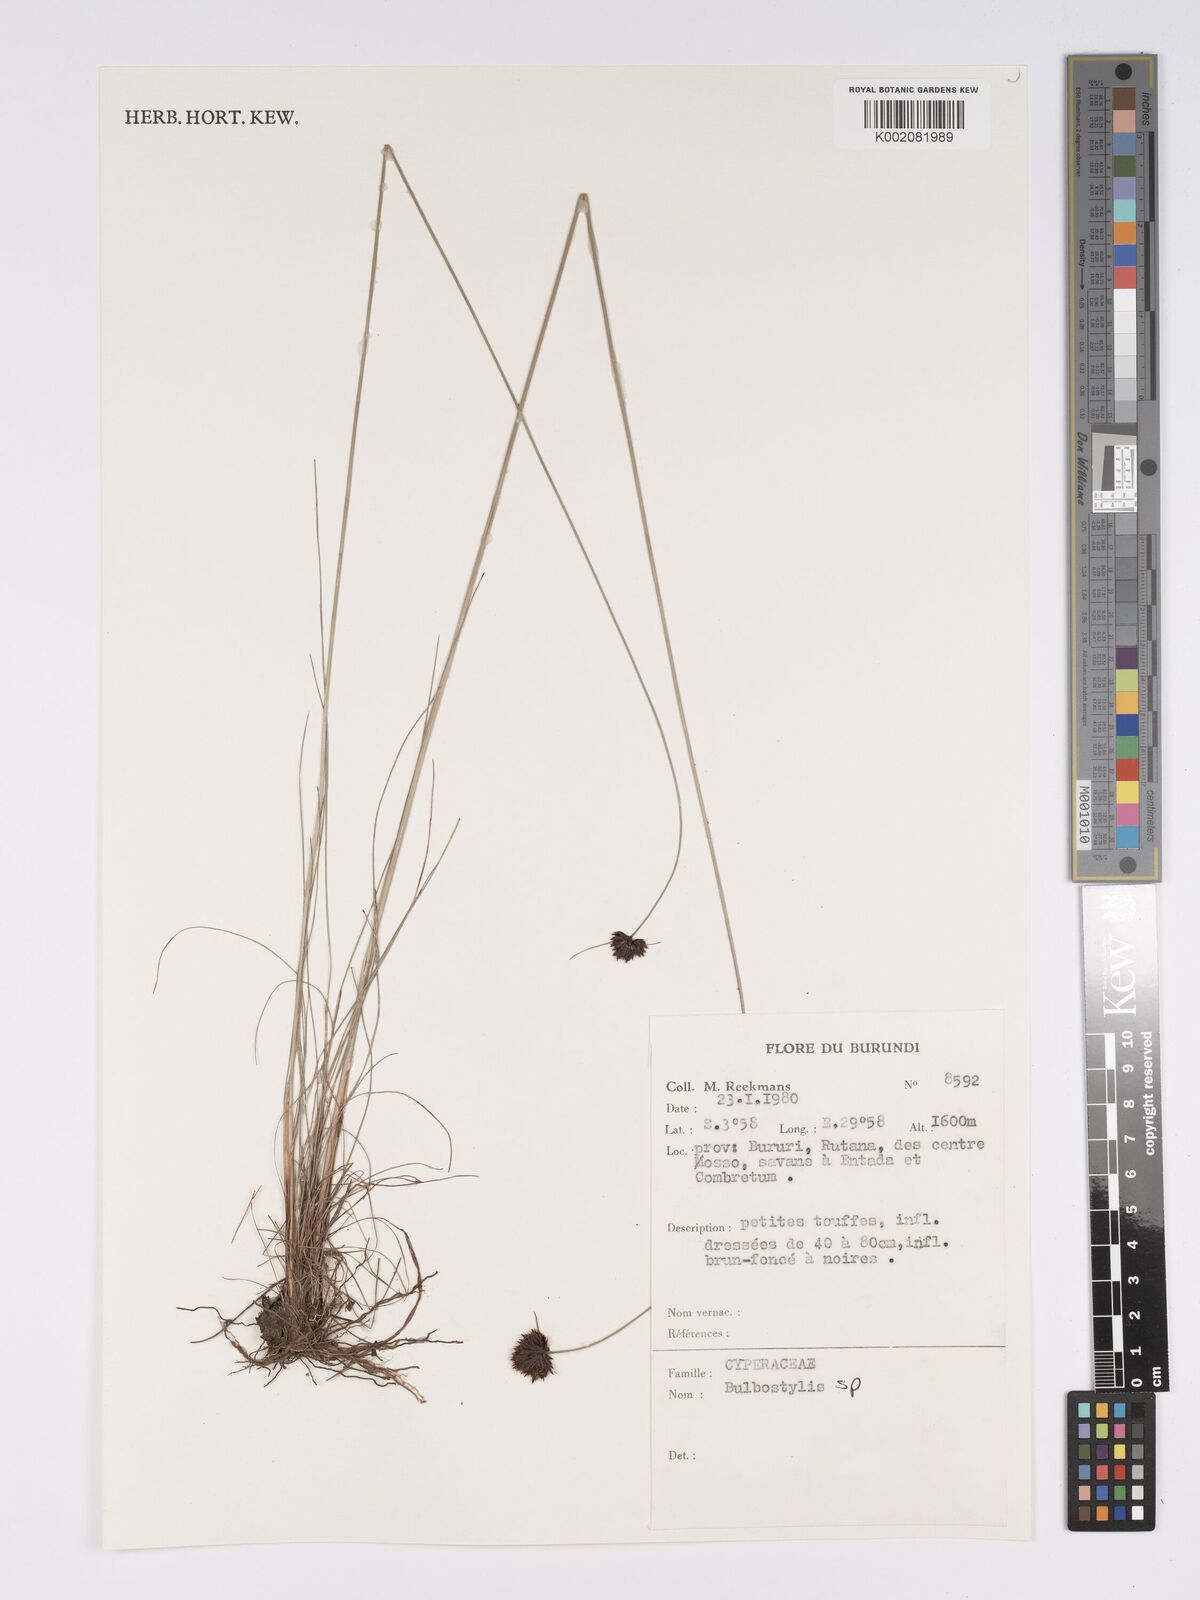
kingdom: Plantae
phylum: Tracheophyta
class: Magnoliopsida
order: Asterales
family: Asteraceae
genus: Bulbostylis
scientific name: Bulbostylis
